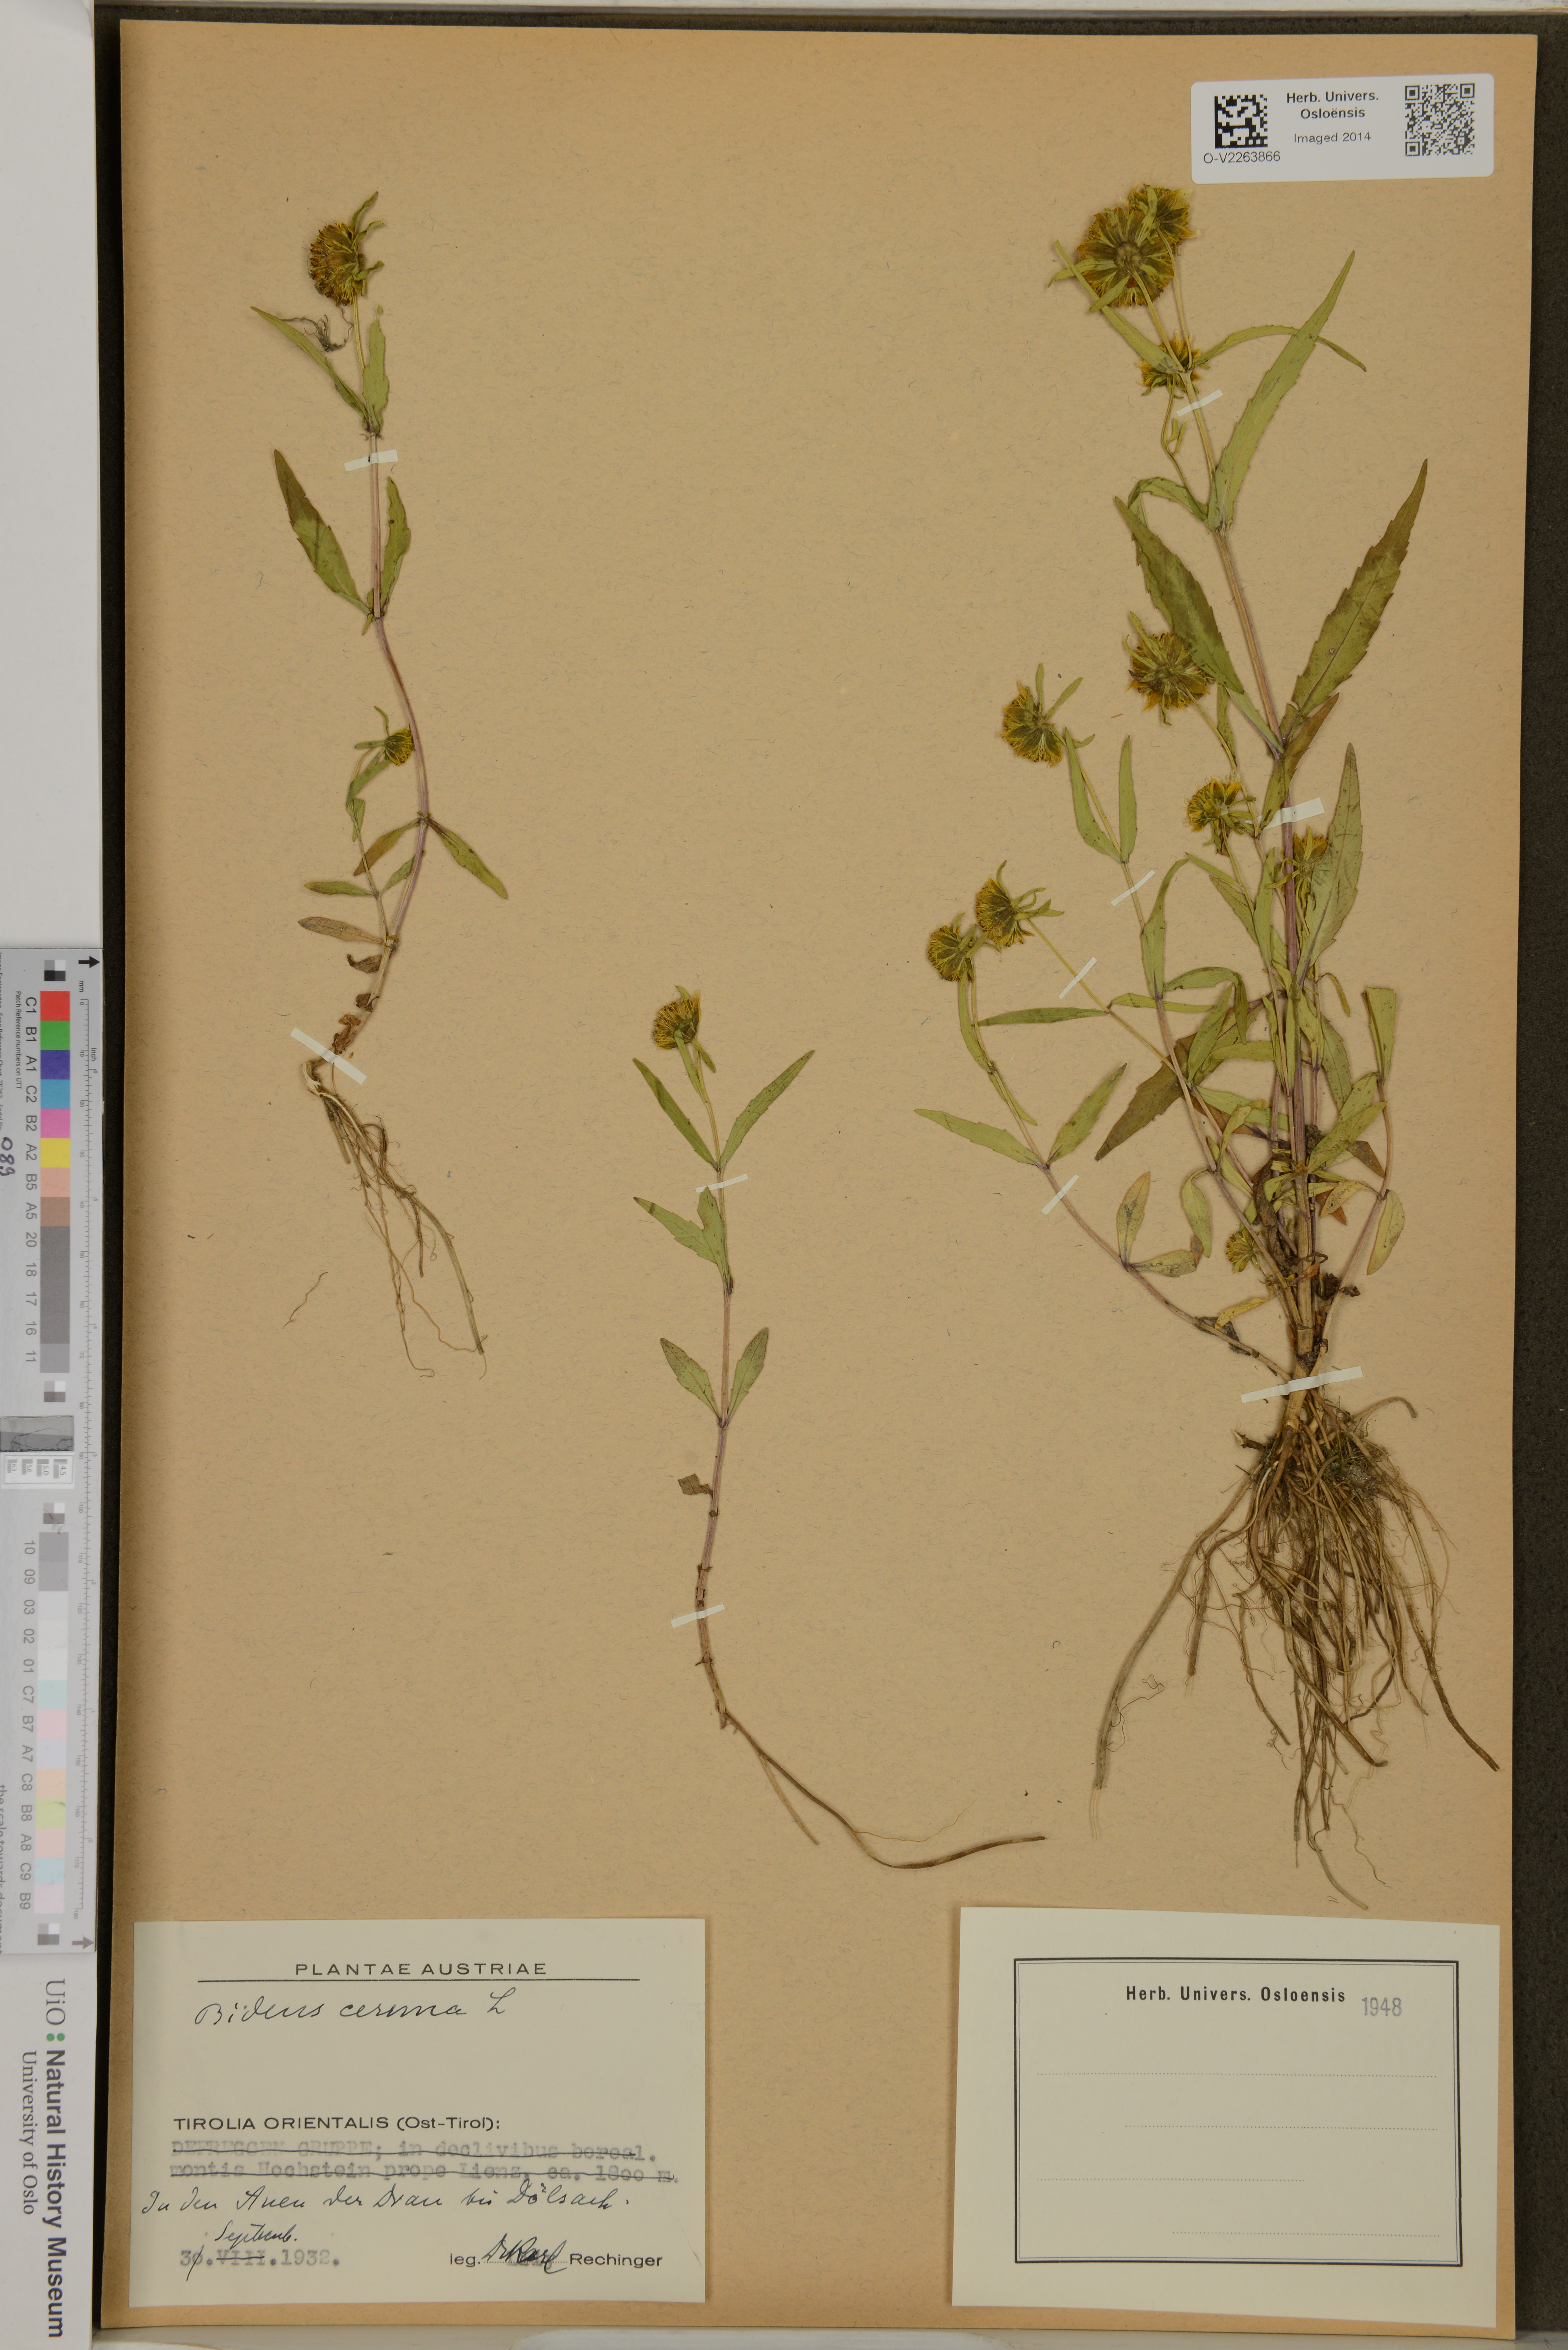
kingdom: Plantae
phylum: Tracheophyta
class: Magnoliopsida
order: Asterales
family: Asteraceae
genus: Bidens
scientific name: Bidens cernua
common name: Nodding bur-marigold
